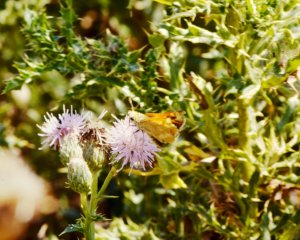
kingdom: Animalia
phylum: Arthropoda
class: Insecta
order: Lepidoptera
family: Hesperiidae
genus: Ochlodes
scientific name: Ochlodes sylvanoides
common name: Woodland Skipper
